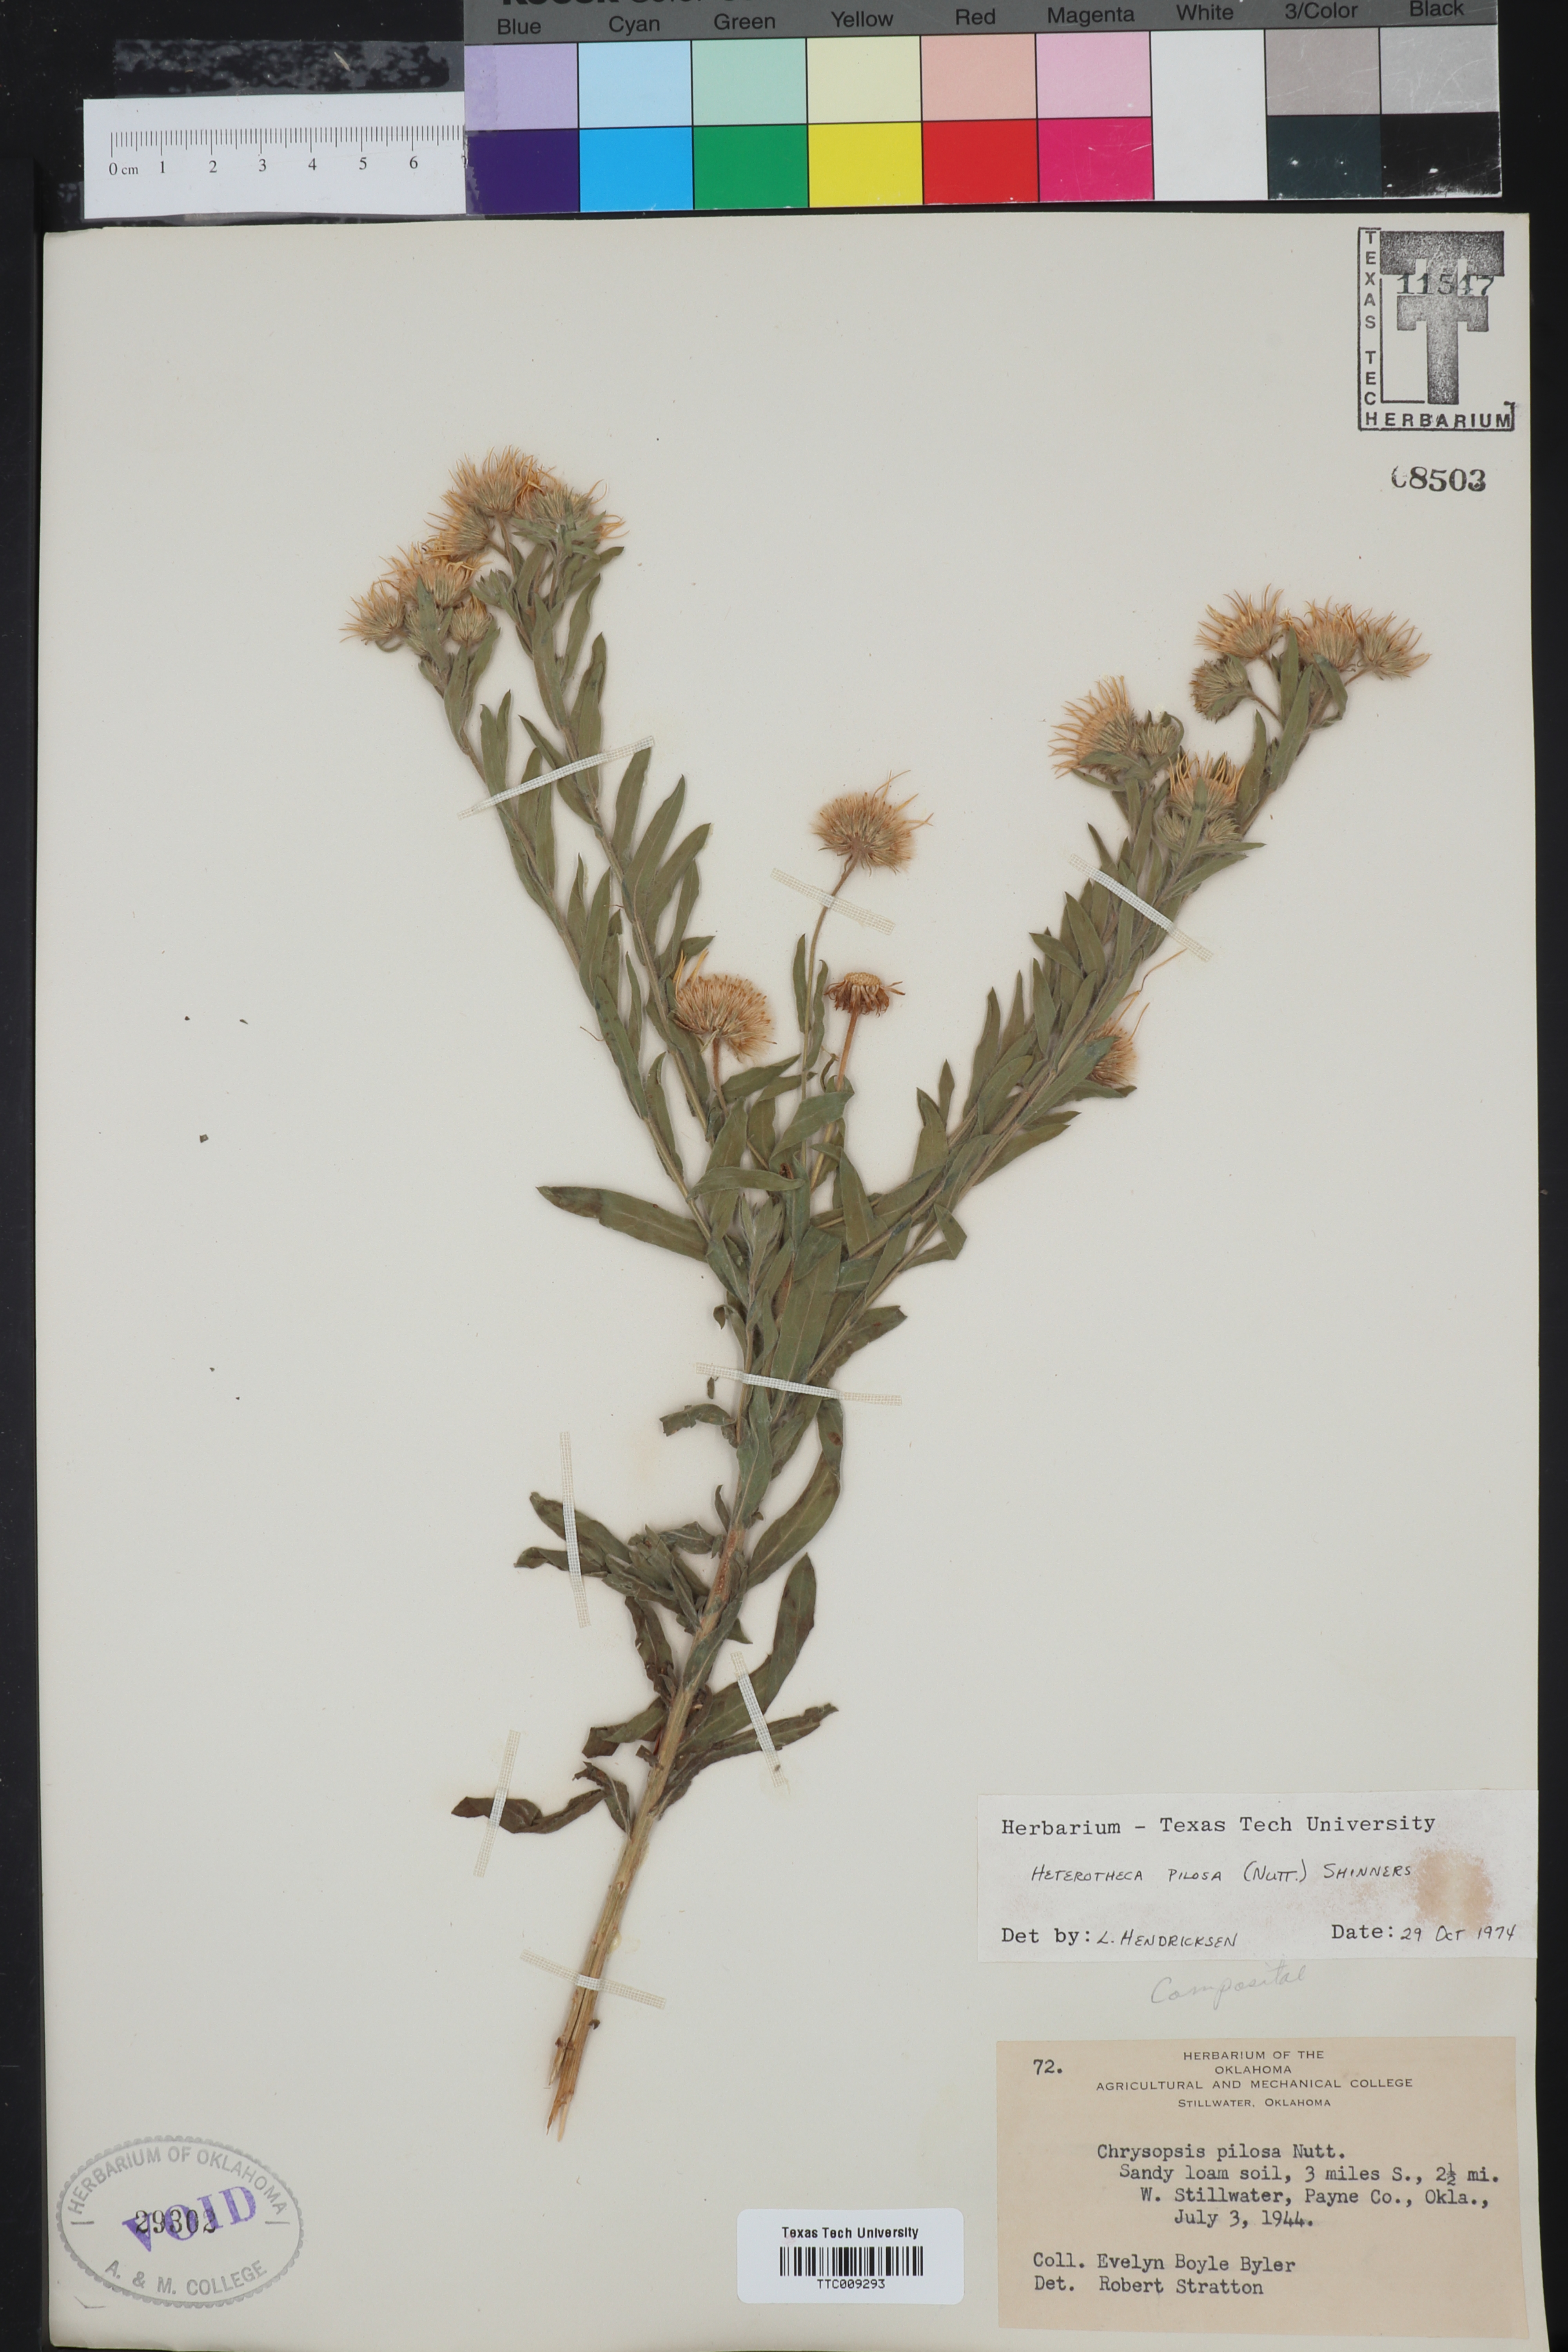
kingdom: Plantae
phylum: Tracheophyta
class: Magnoliopsida
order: Asterales
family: Asteraceae
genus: Bradburia
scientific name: Bradburia pilosa
